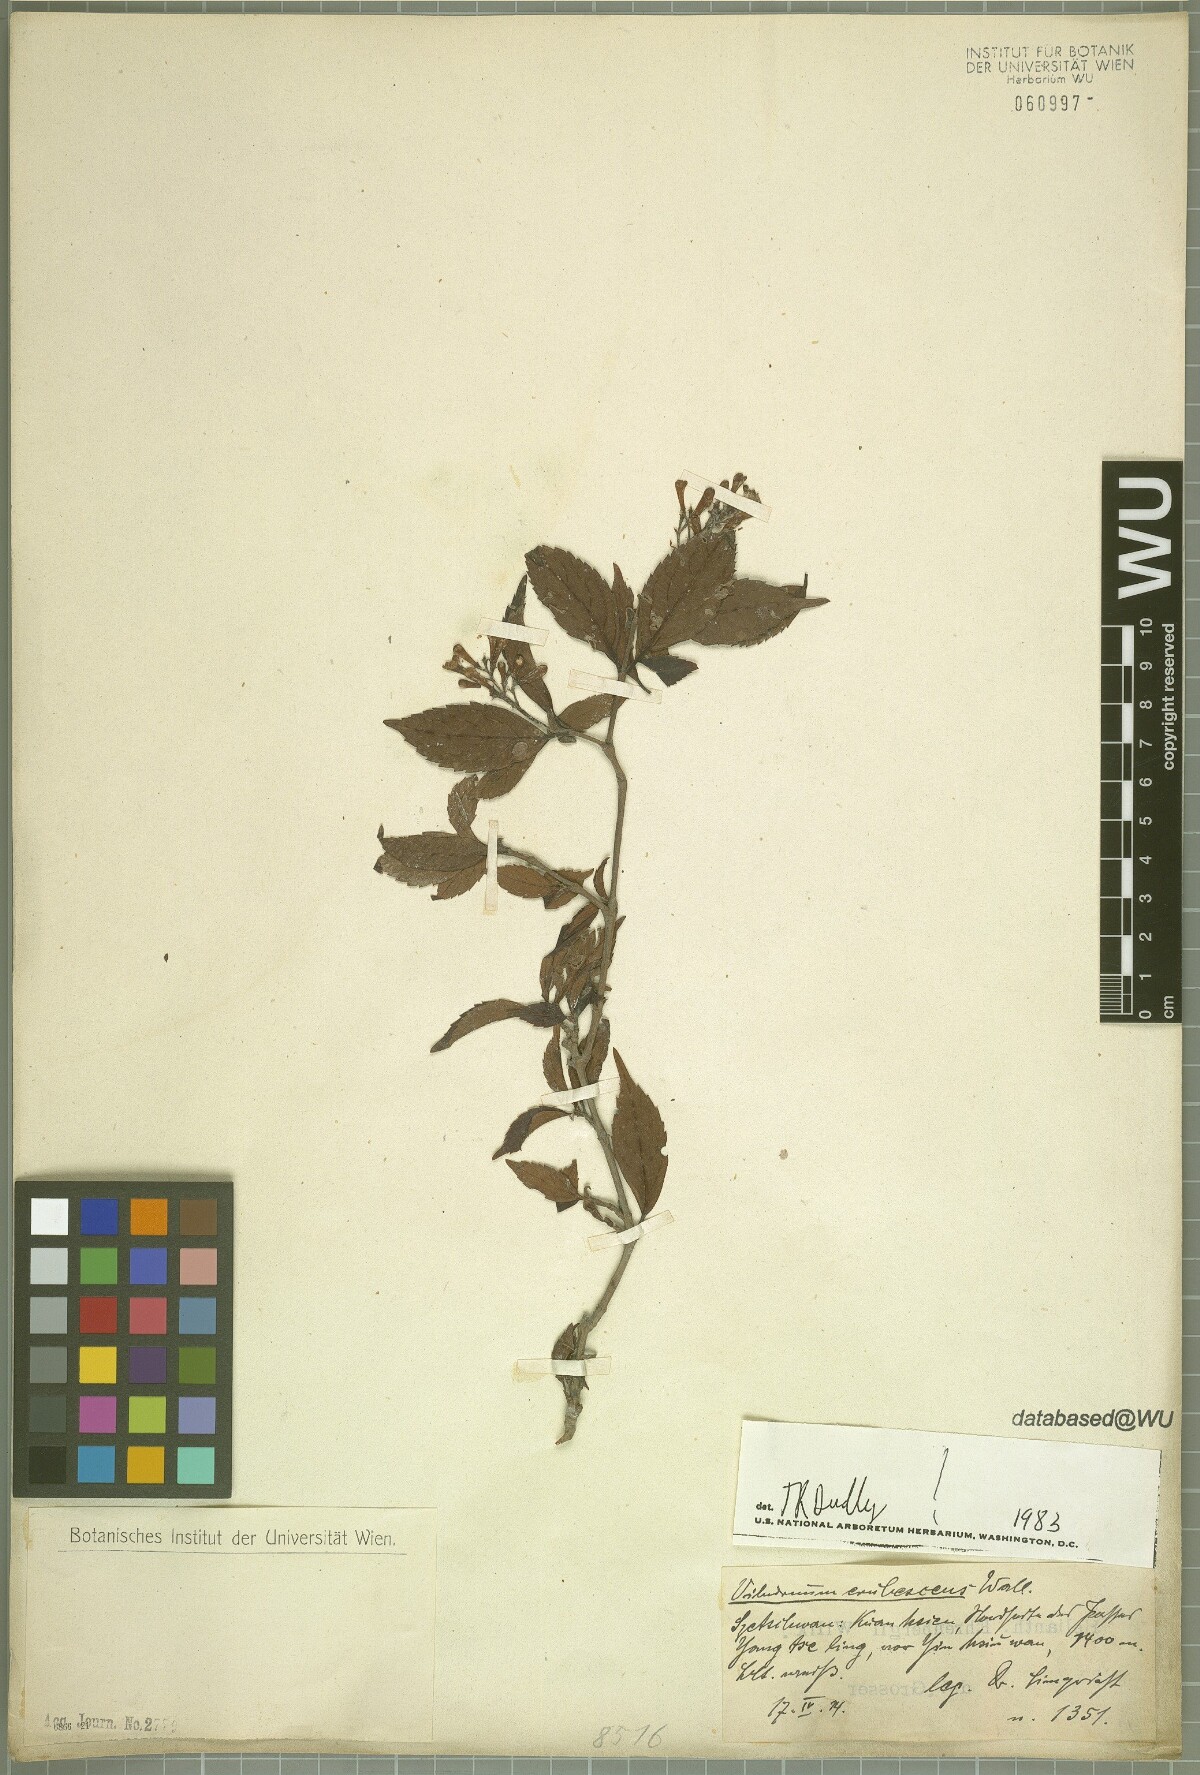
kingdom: Plantae
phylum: Tracheophyta
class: Magnoliopsida
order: Dipsacales
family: Viburnaceae
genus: Viburnum
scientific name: Viburnum erubescens
